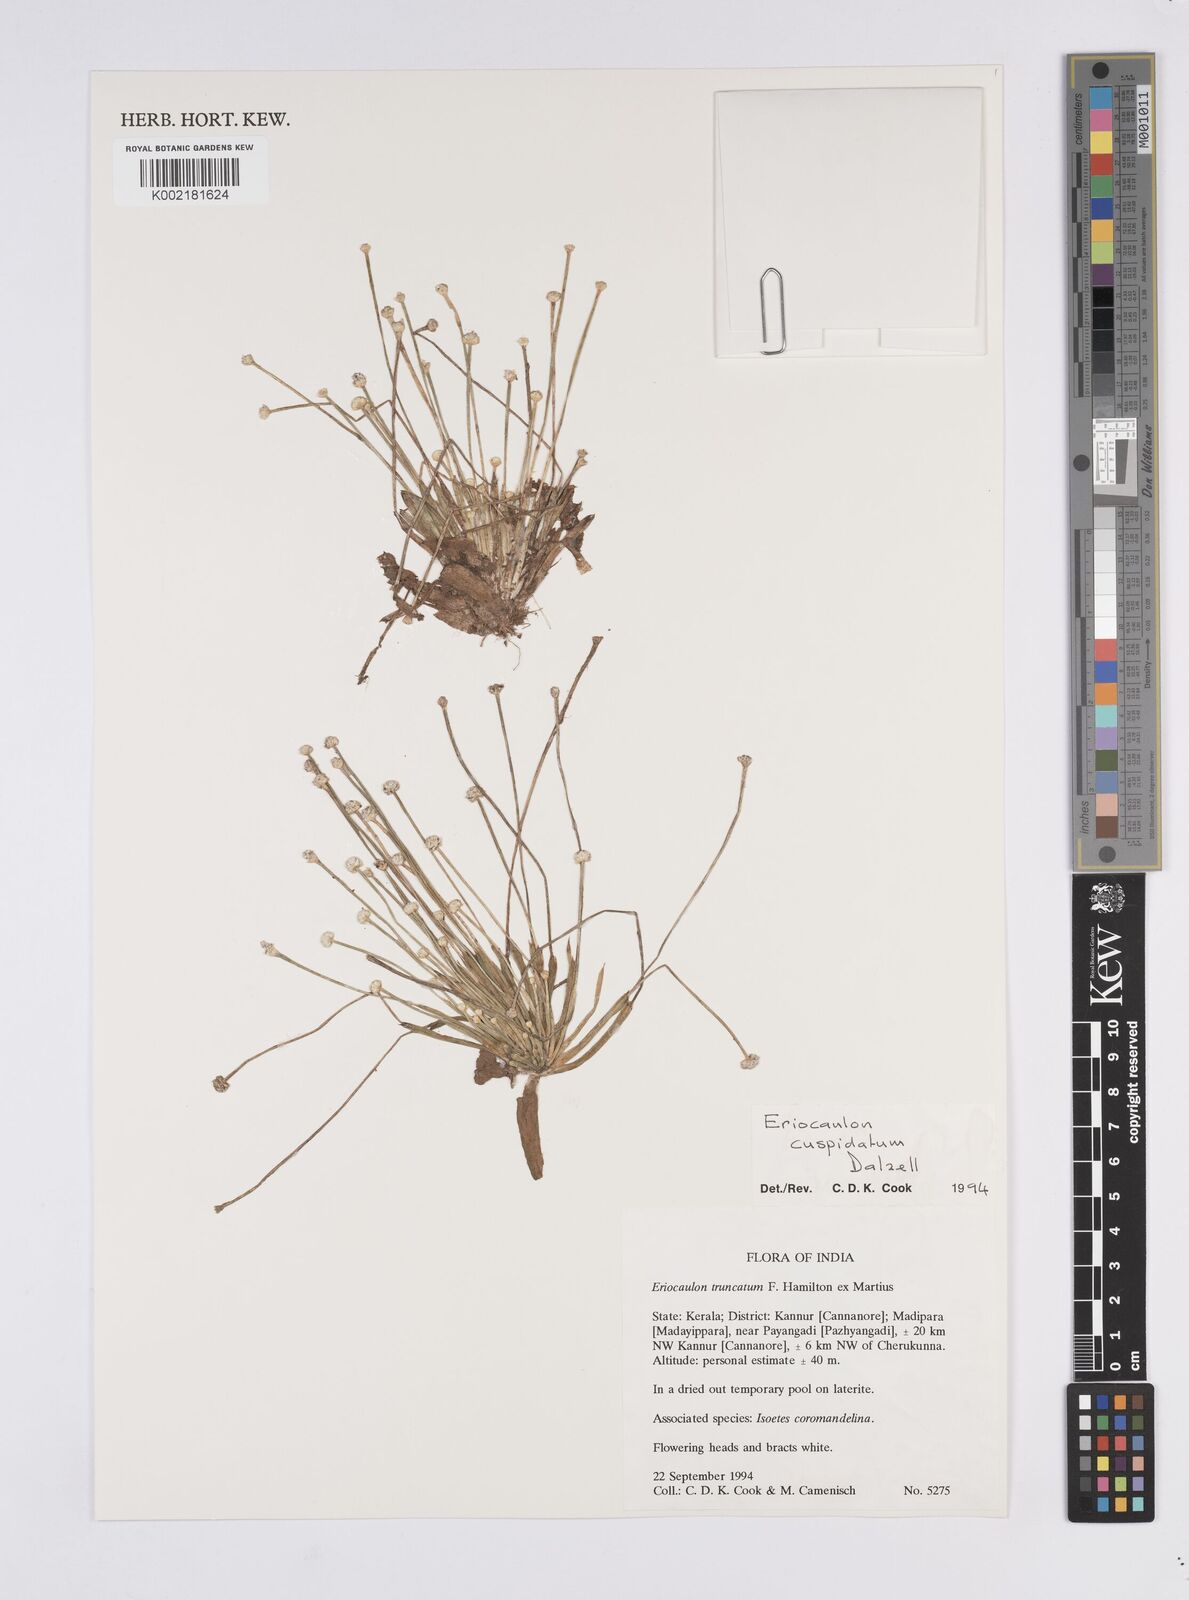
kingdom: Plantae
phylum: Tracheophyta
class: Liliopsida
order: Poales
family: Eriocaulaceae
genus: Eriocaulon
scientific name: Eriocaulon cuspidatum
